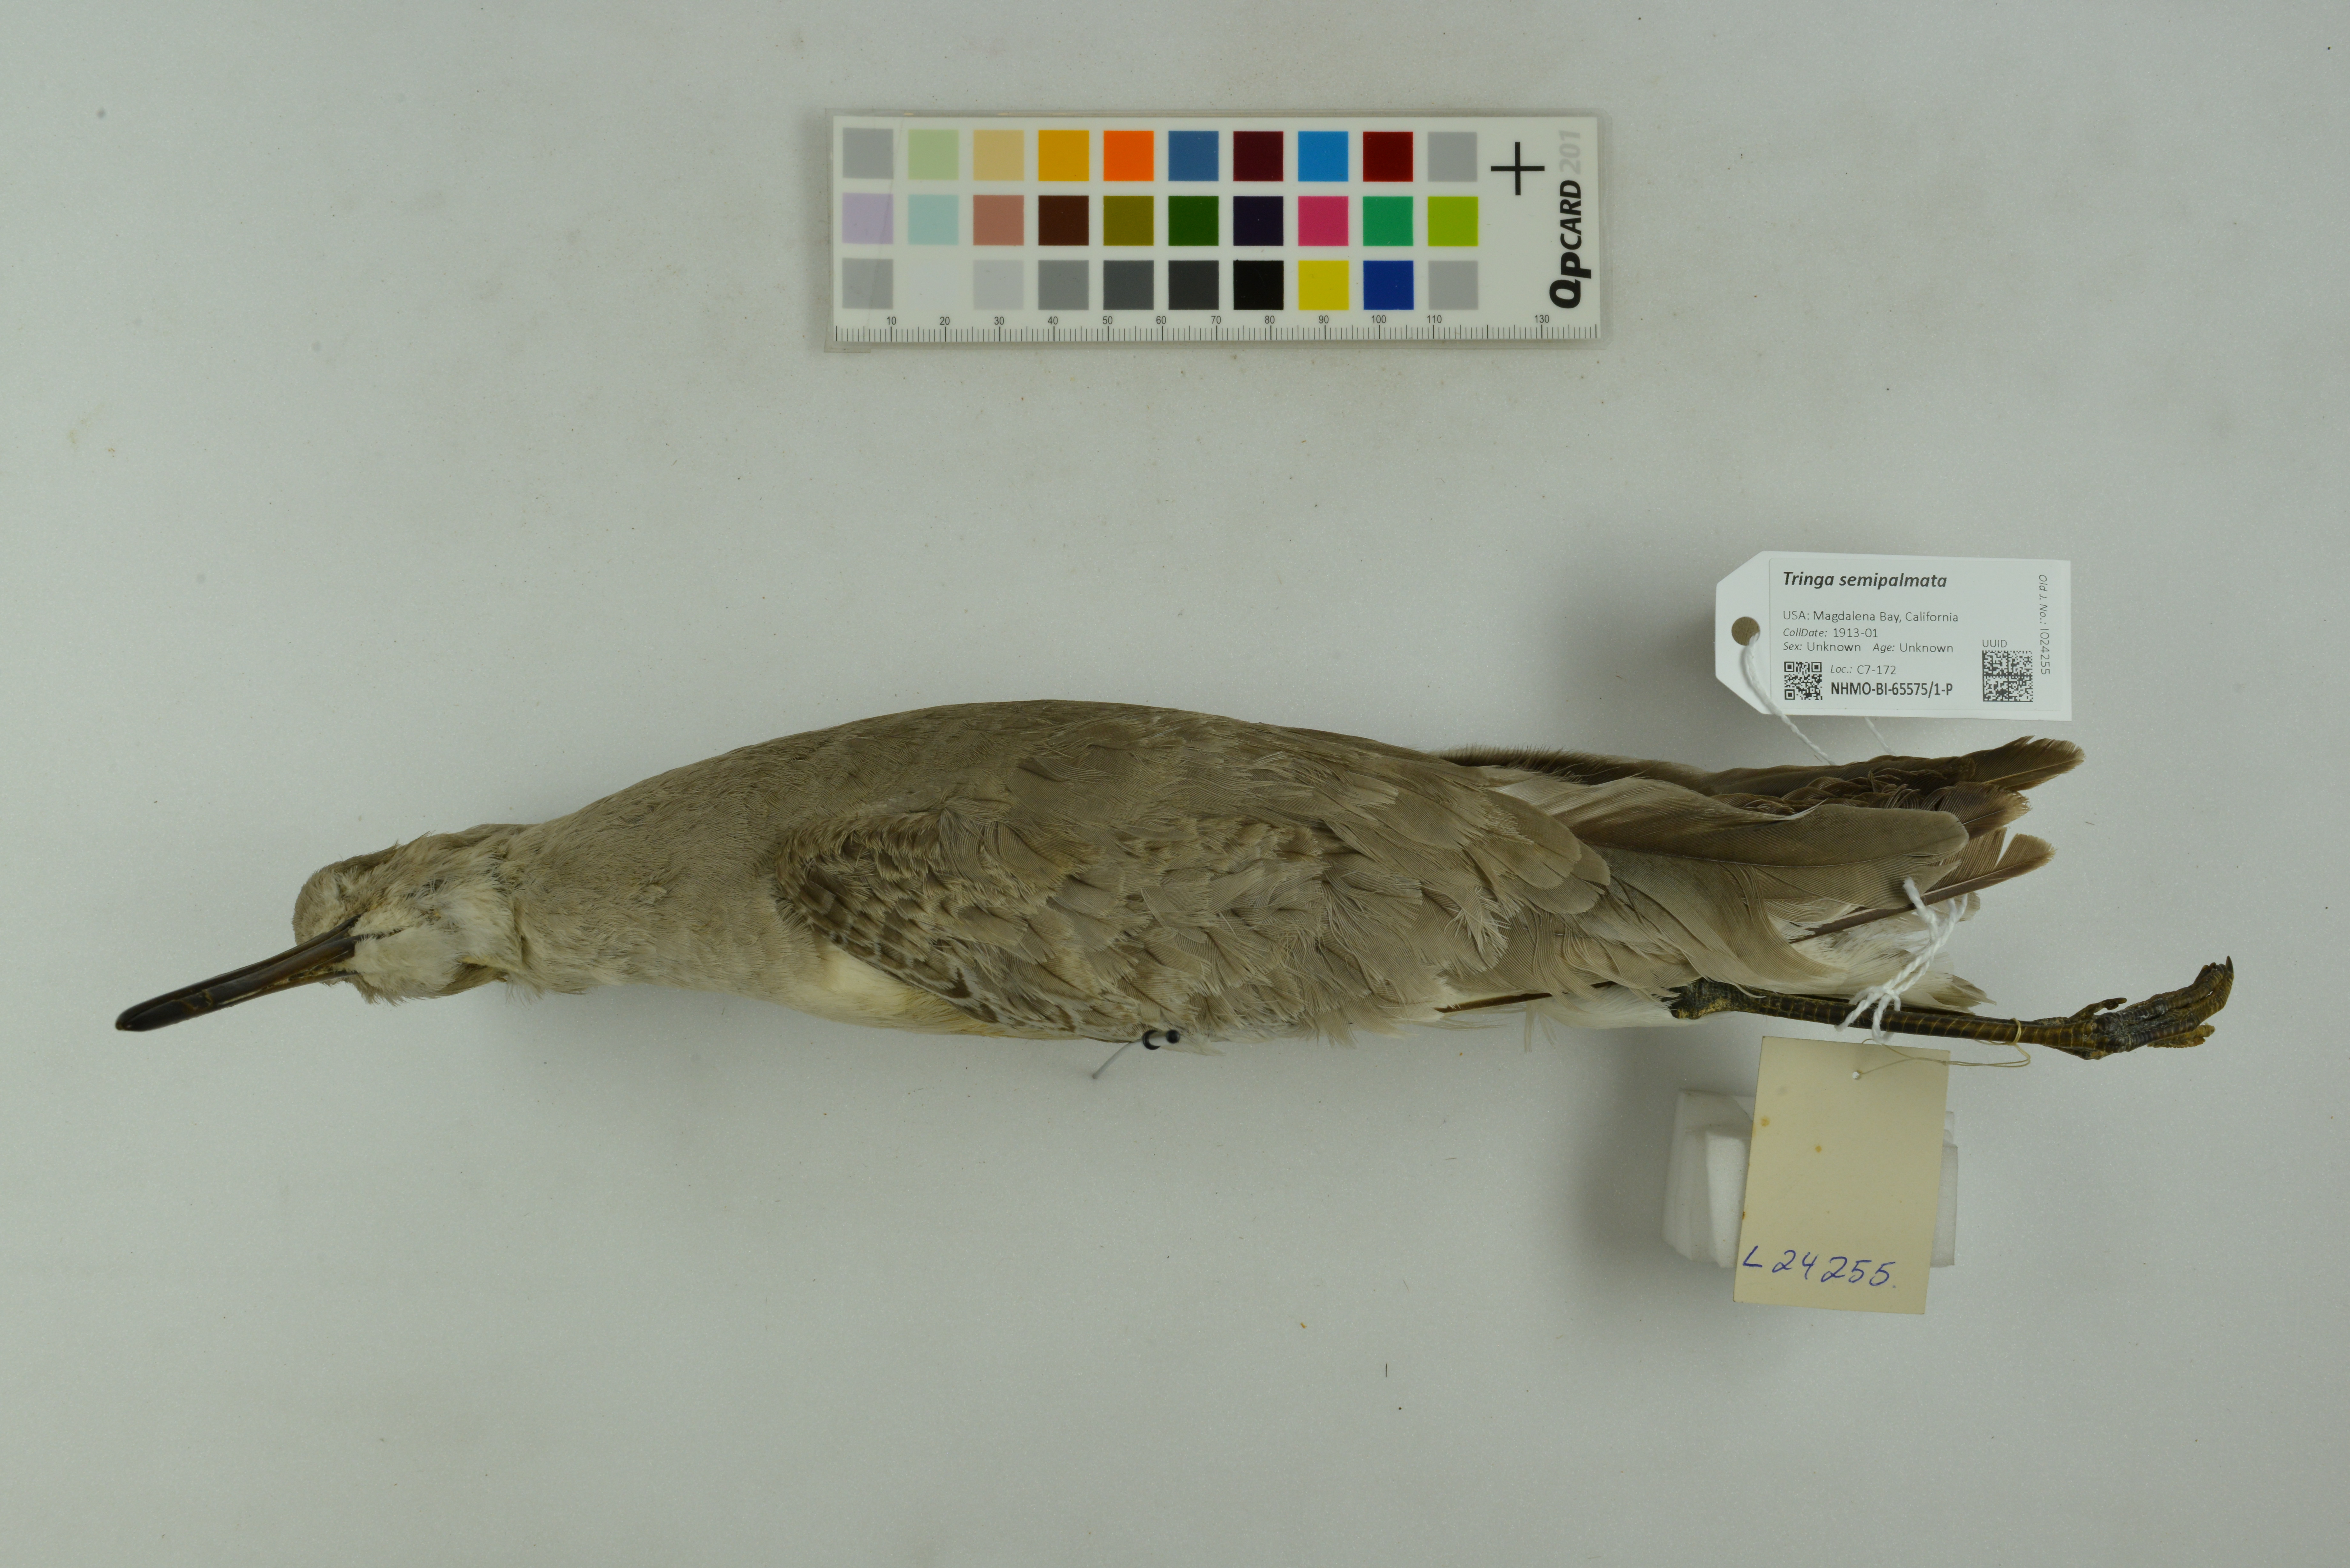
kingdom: Animalia
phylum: Chordata
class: Aves
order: Charadriiformes
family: Scolopacidae
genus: Tringa
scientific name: Tringa semipalmata
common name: Willet
